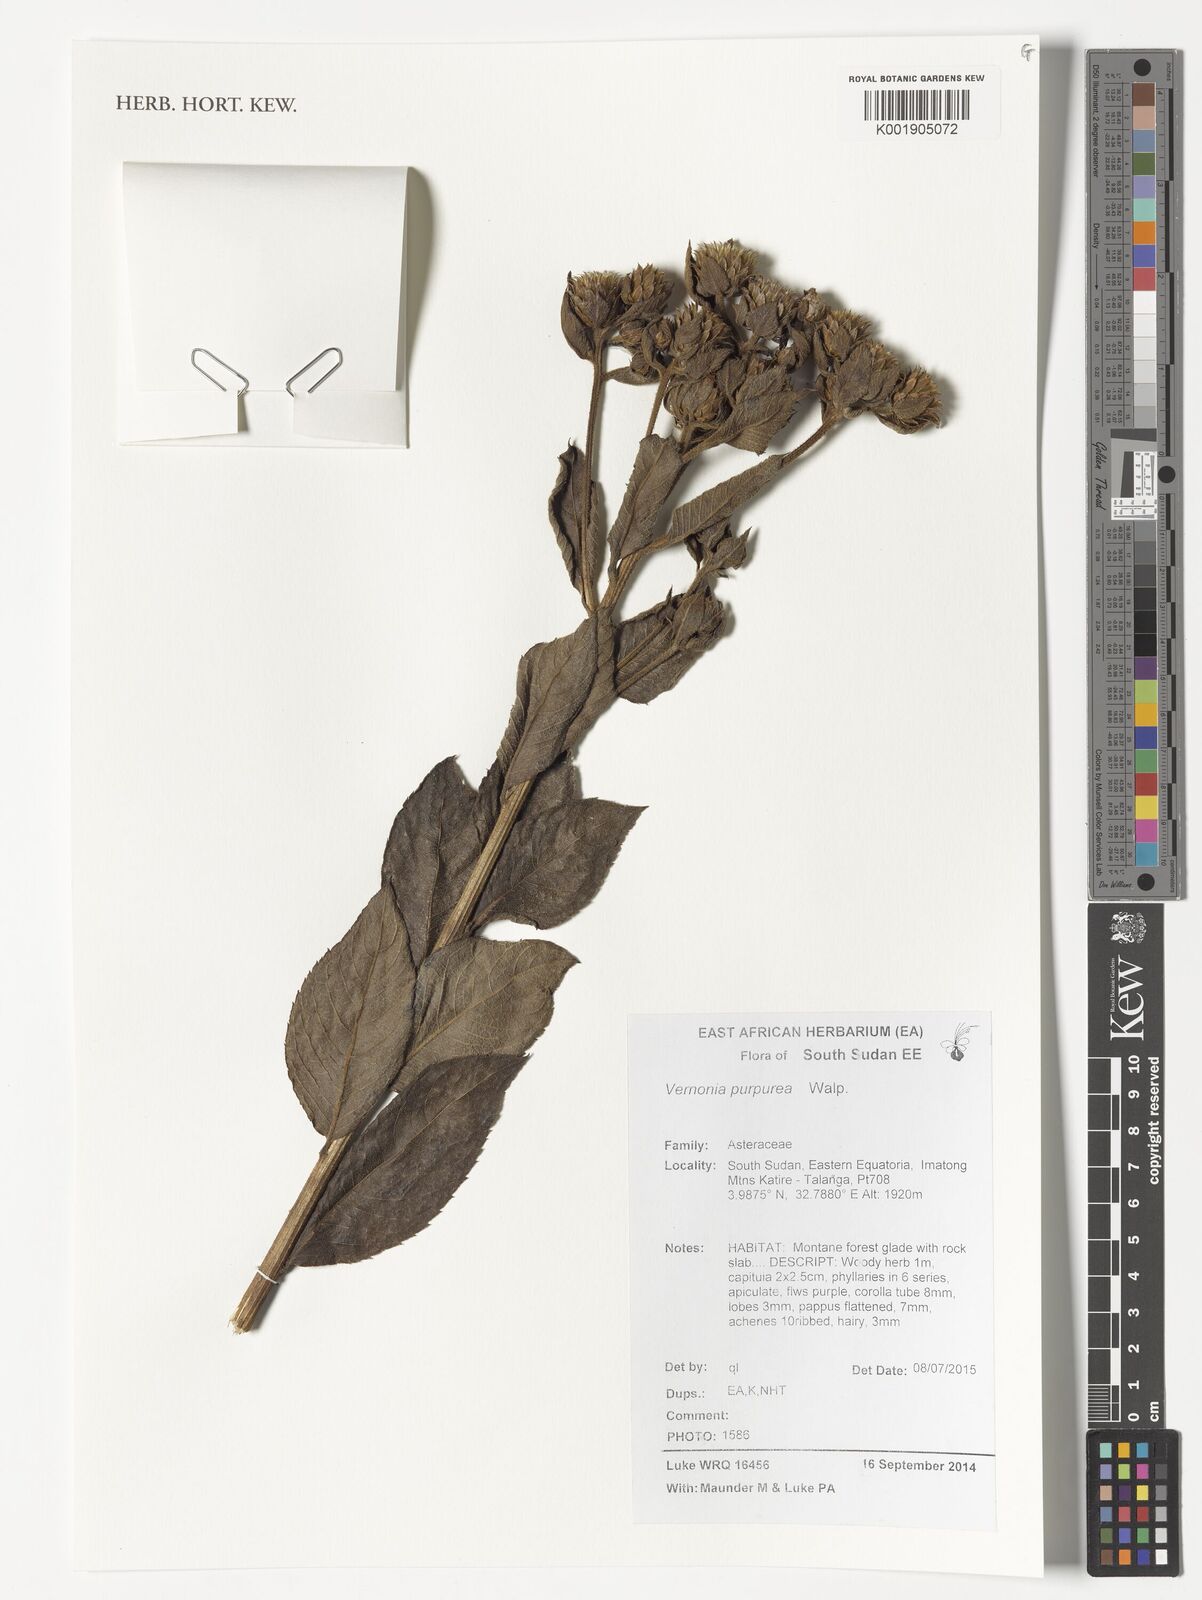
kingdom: Plantae
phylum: Tracheophyta
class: Magnoliopsida
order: Asterales
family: Asteraceae
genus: Nothovernonia
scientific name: Nothovernonia purpurea
